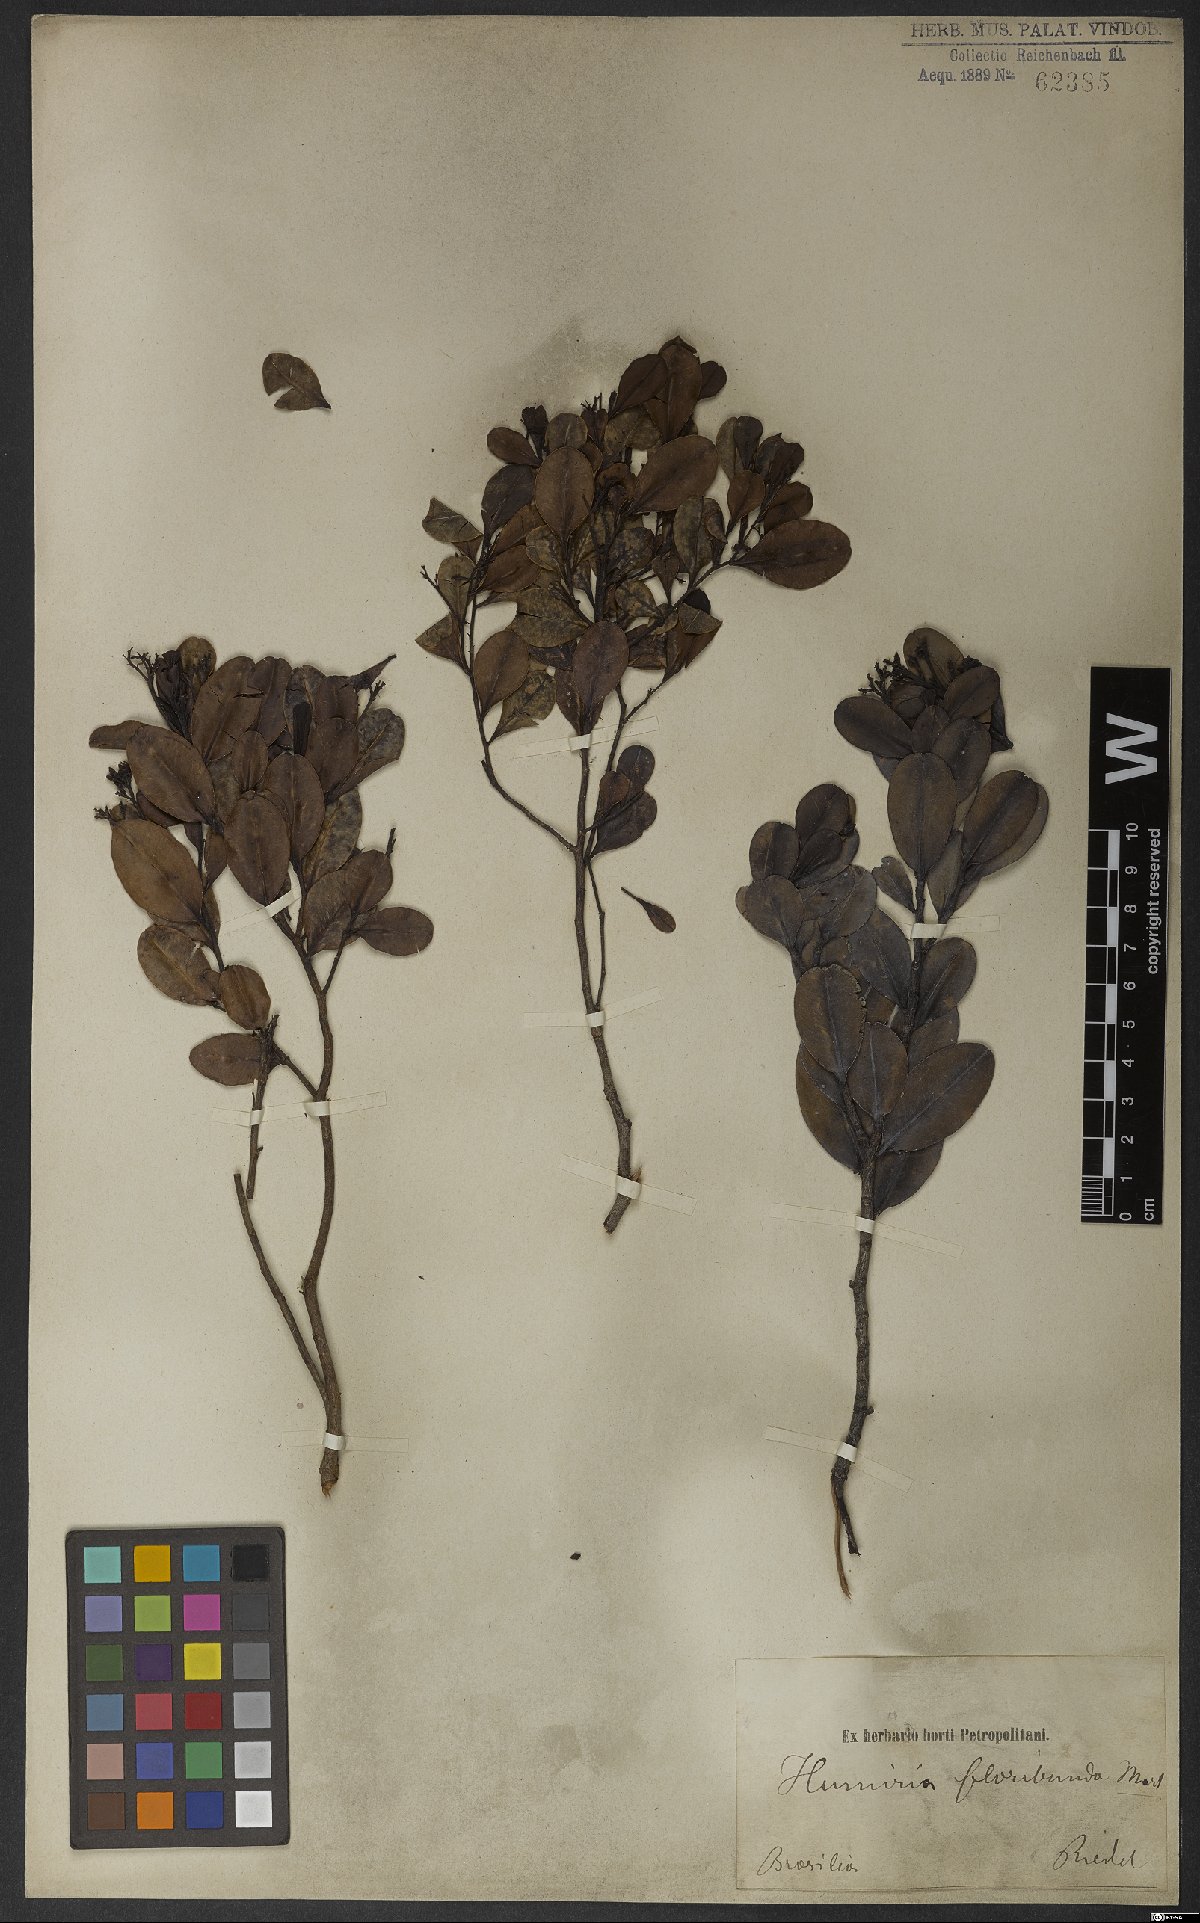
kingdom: Plantae
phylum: Tracheophyta
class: Magnoliopsida
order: Malpighiales
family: Humiriaceae
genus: Humiria
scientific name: Humiria balsamifera
